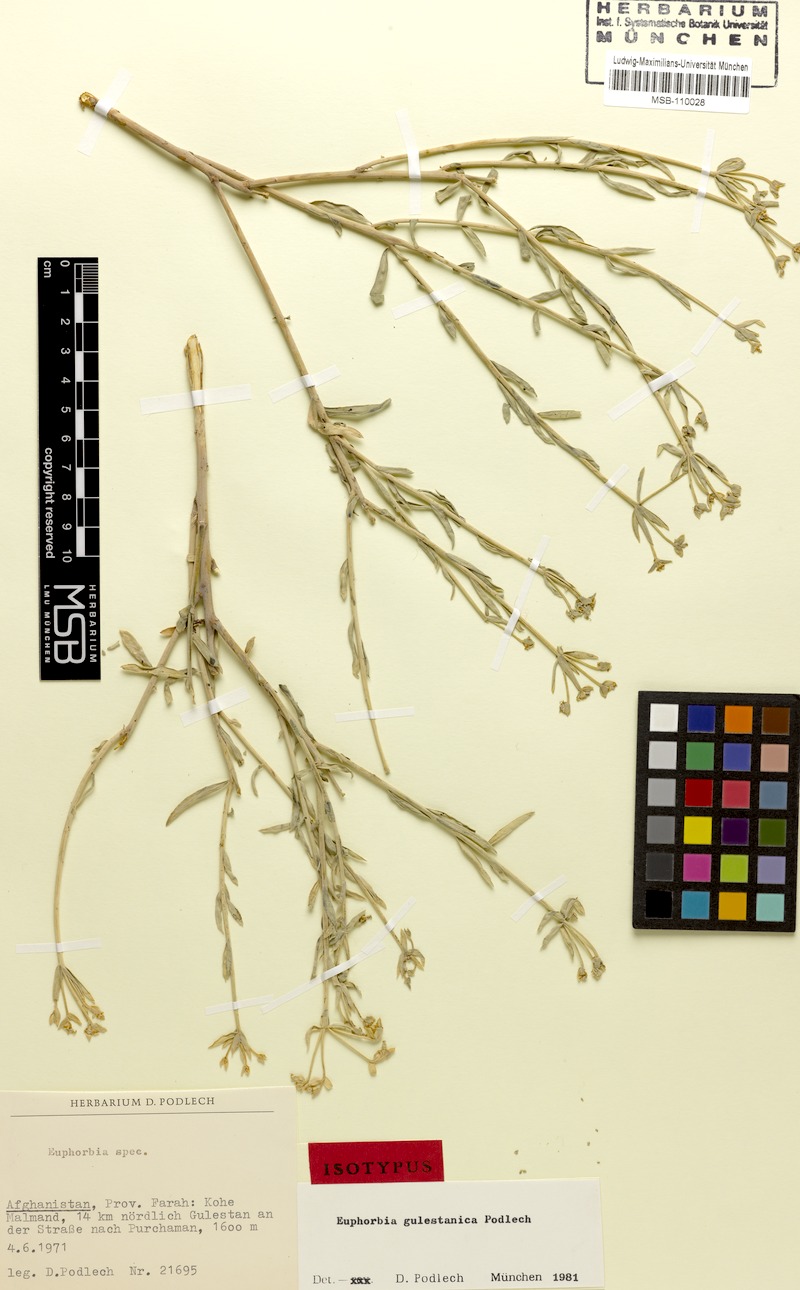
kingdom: Plantae
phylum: Tracheophyta
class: Magnoliopsida
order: Malpighiales
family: Euphorbiaceae
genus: Euphorbia
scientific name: Euphorbia gulestanica
